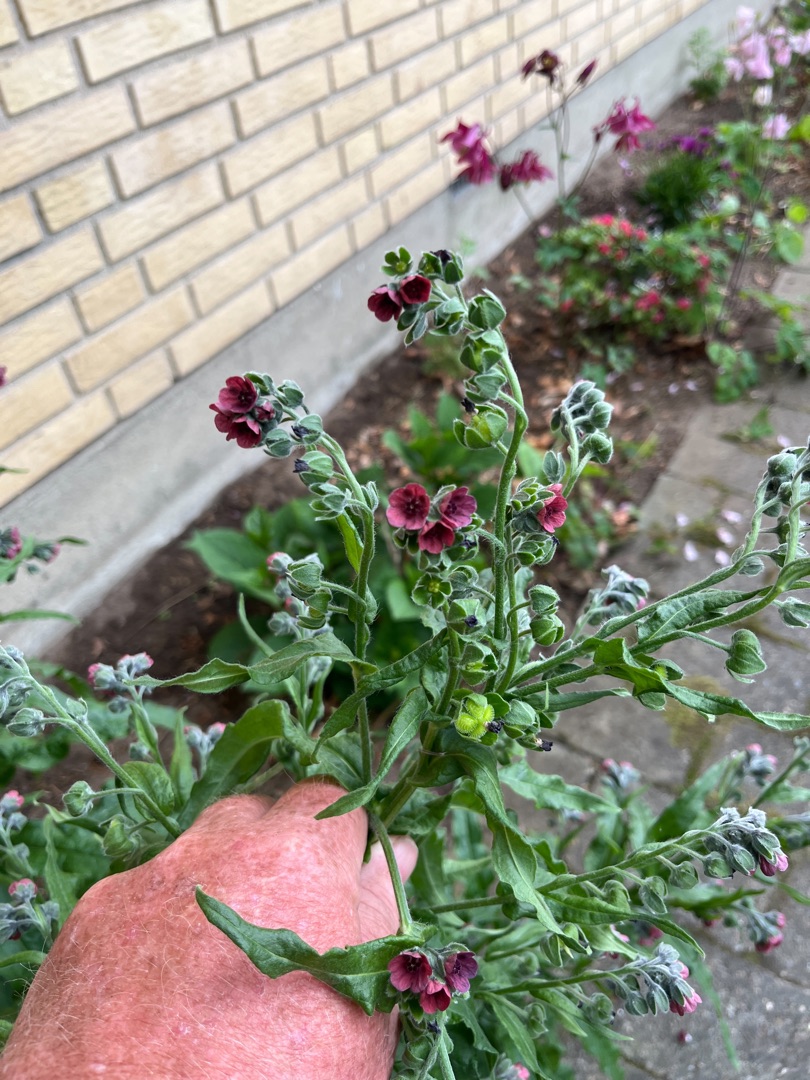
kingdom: Plantae
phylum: Tracheophyta
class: Magnoliopsida
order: Boraginales
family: Boraginaceae
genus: Cynoglossum
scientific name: Cynoglossum officinale
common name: Hundetunge
